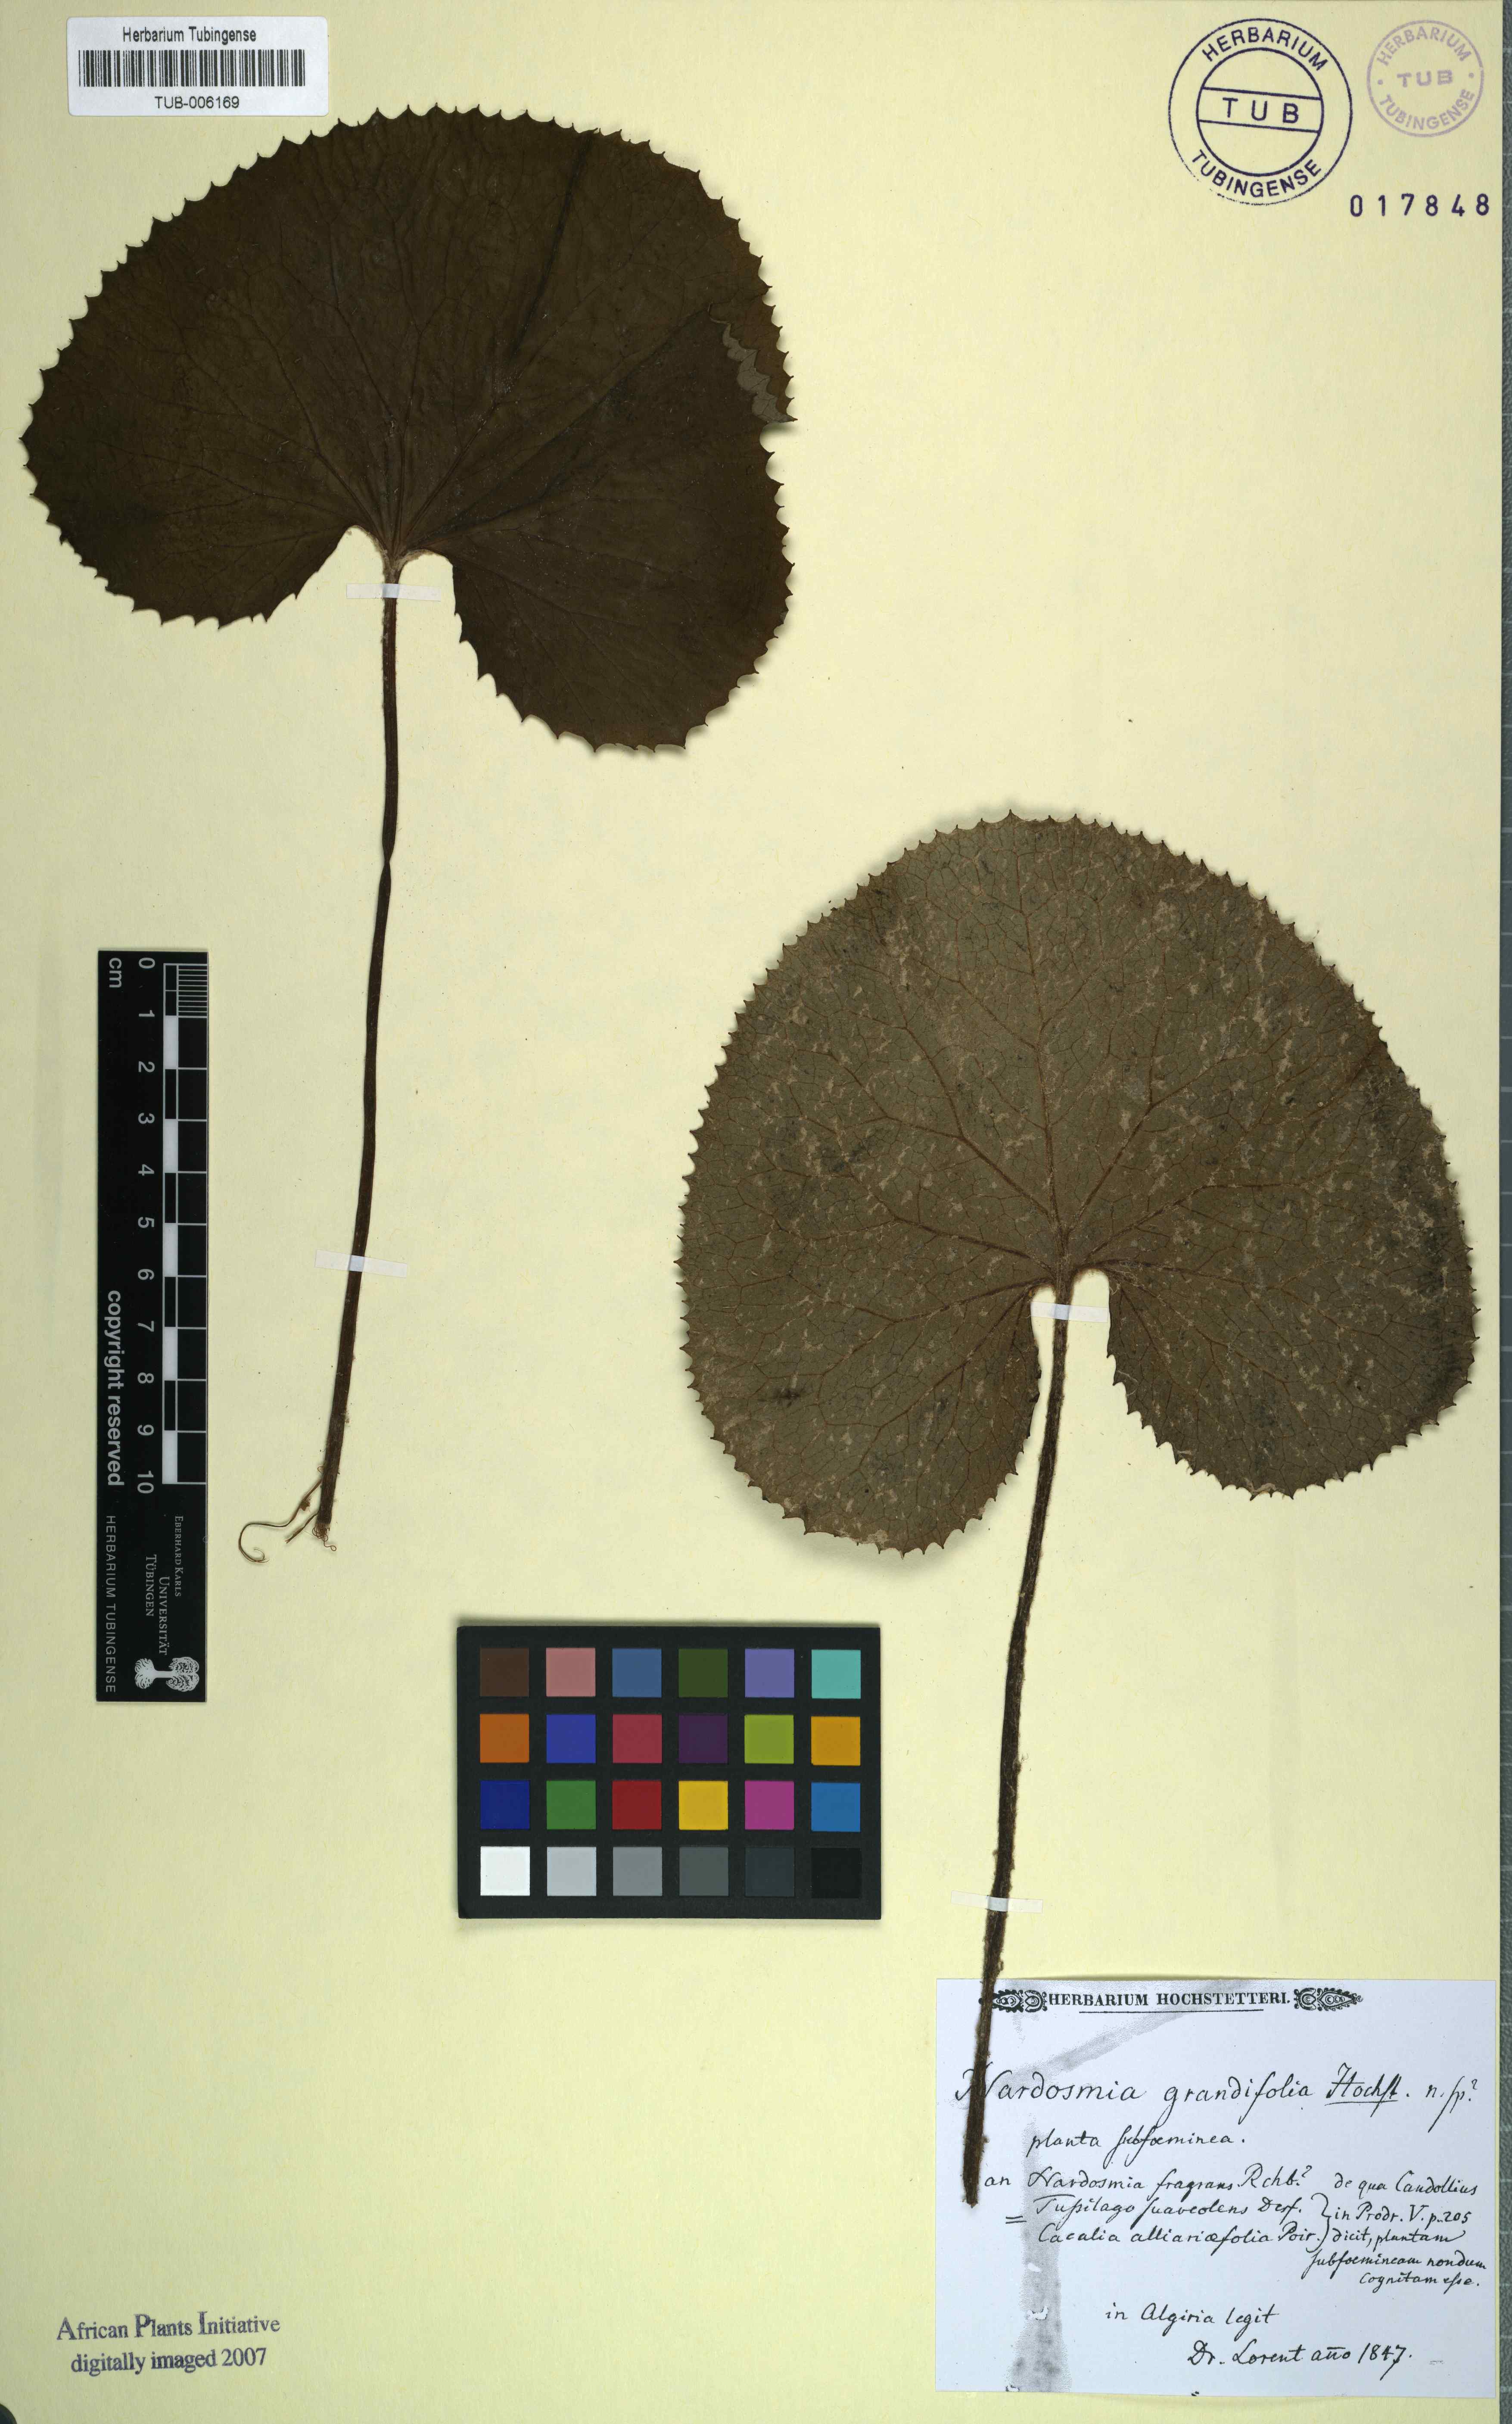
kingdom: Plantae
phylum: Tracheophyta
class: Magnoliopsida
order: Asterales
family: Asteraceae
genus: Petasites
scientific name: Petasites pyrenaicus
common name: Winter heliotrope
